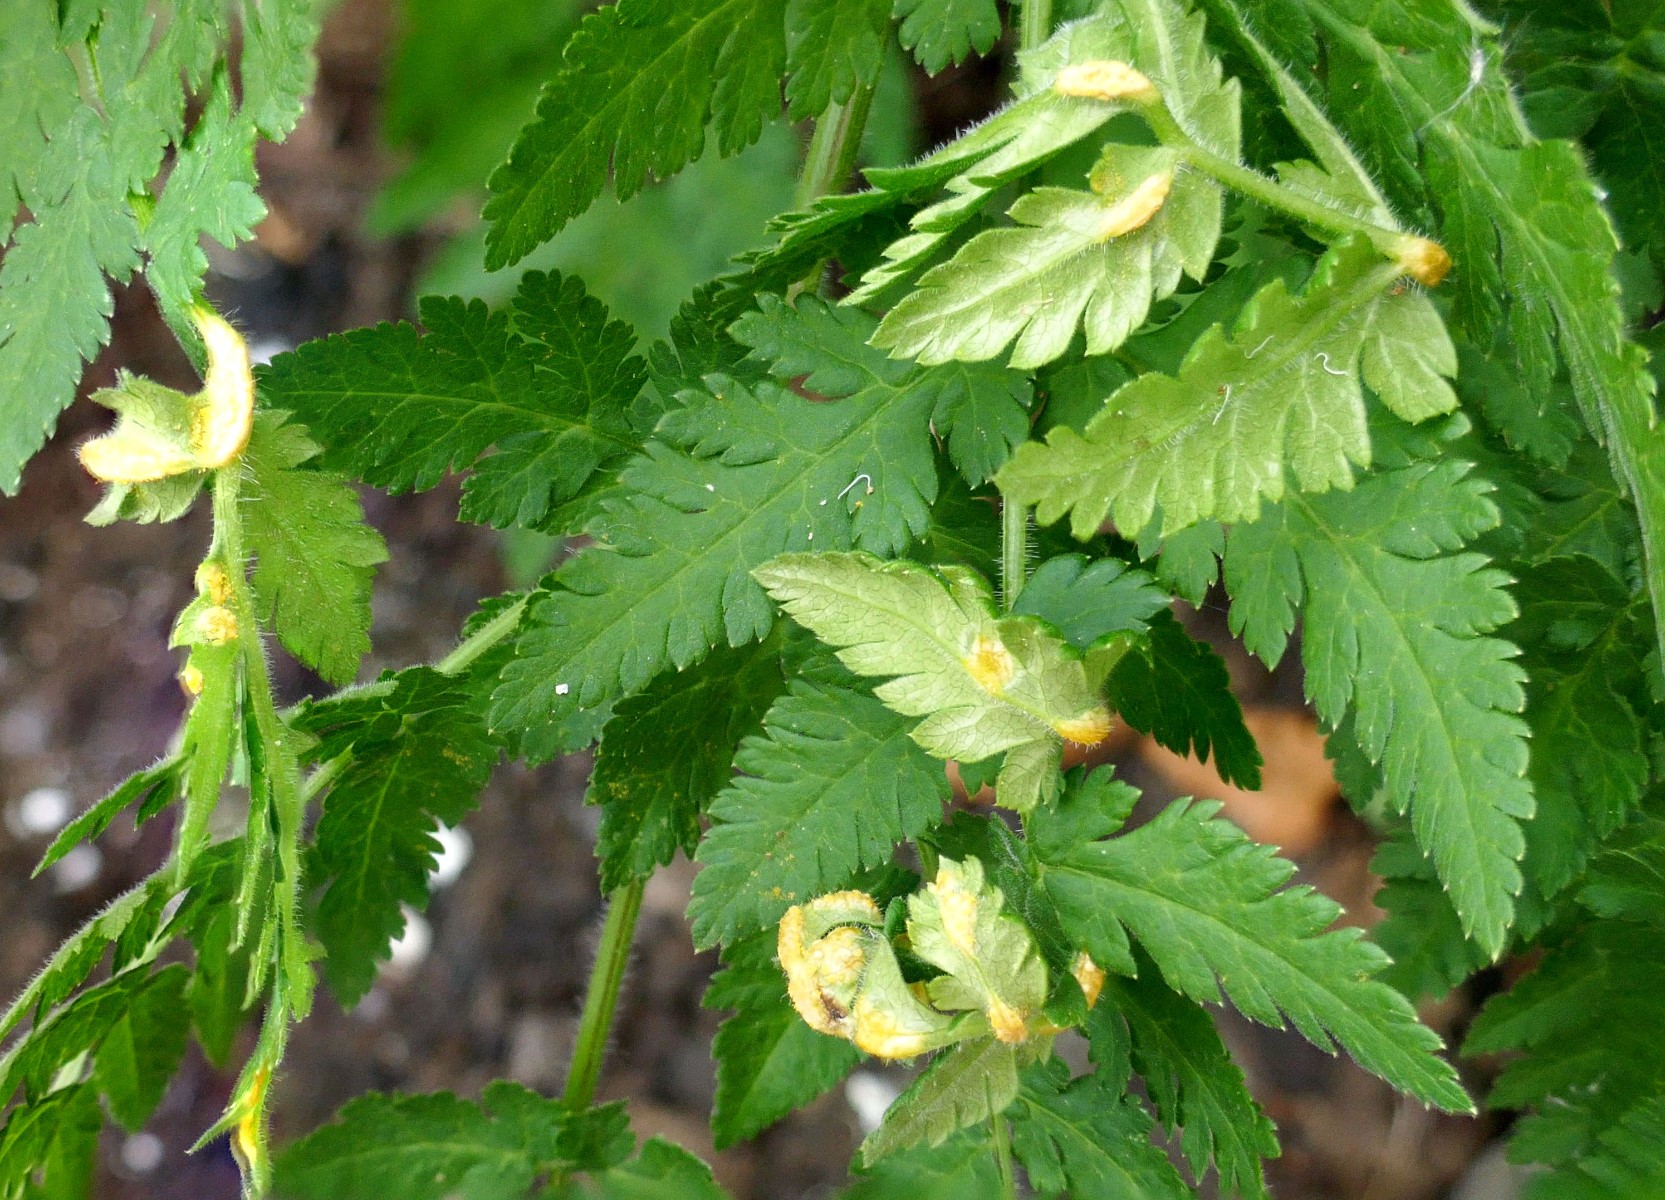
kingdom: Fungi
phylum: Basidiomycota
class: Pucciniomycetes
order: Pucciniales
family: Pucciniaceae
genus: Puccinia
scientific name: Puccinia chaerophylli
